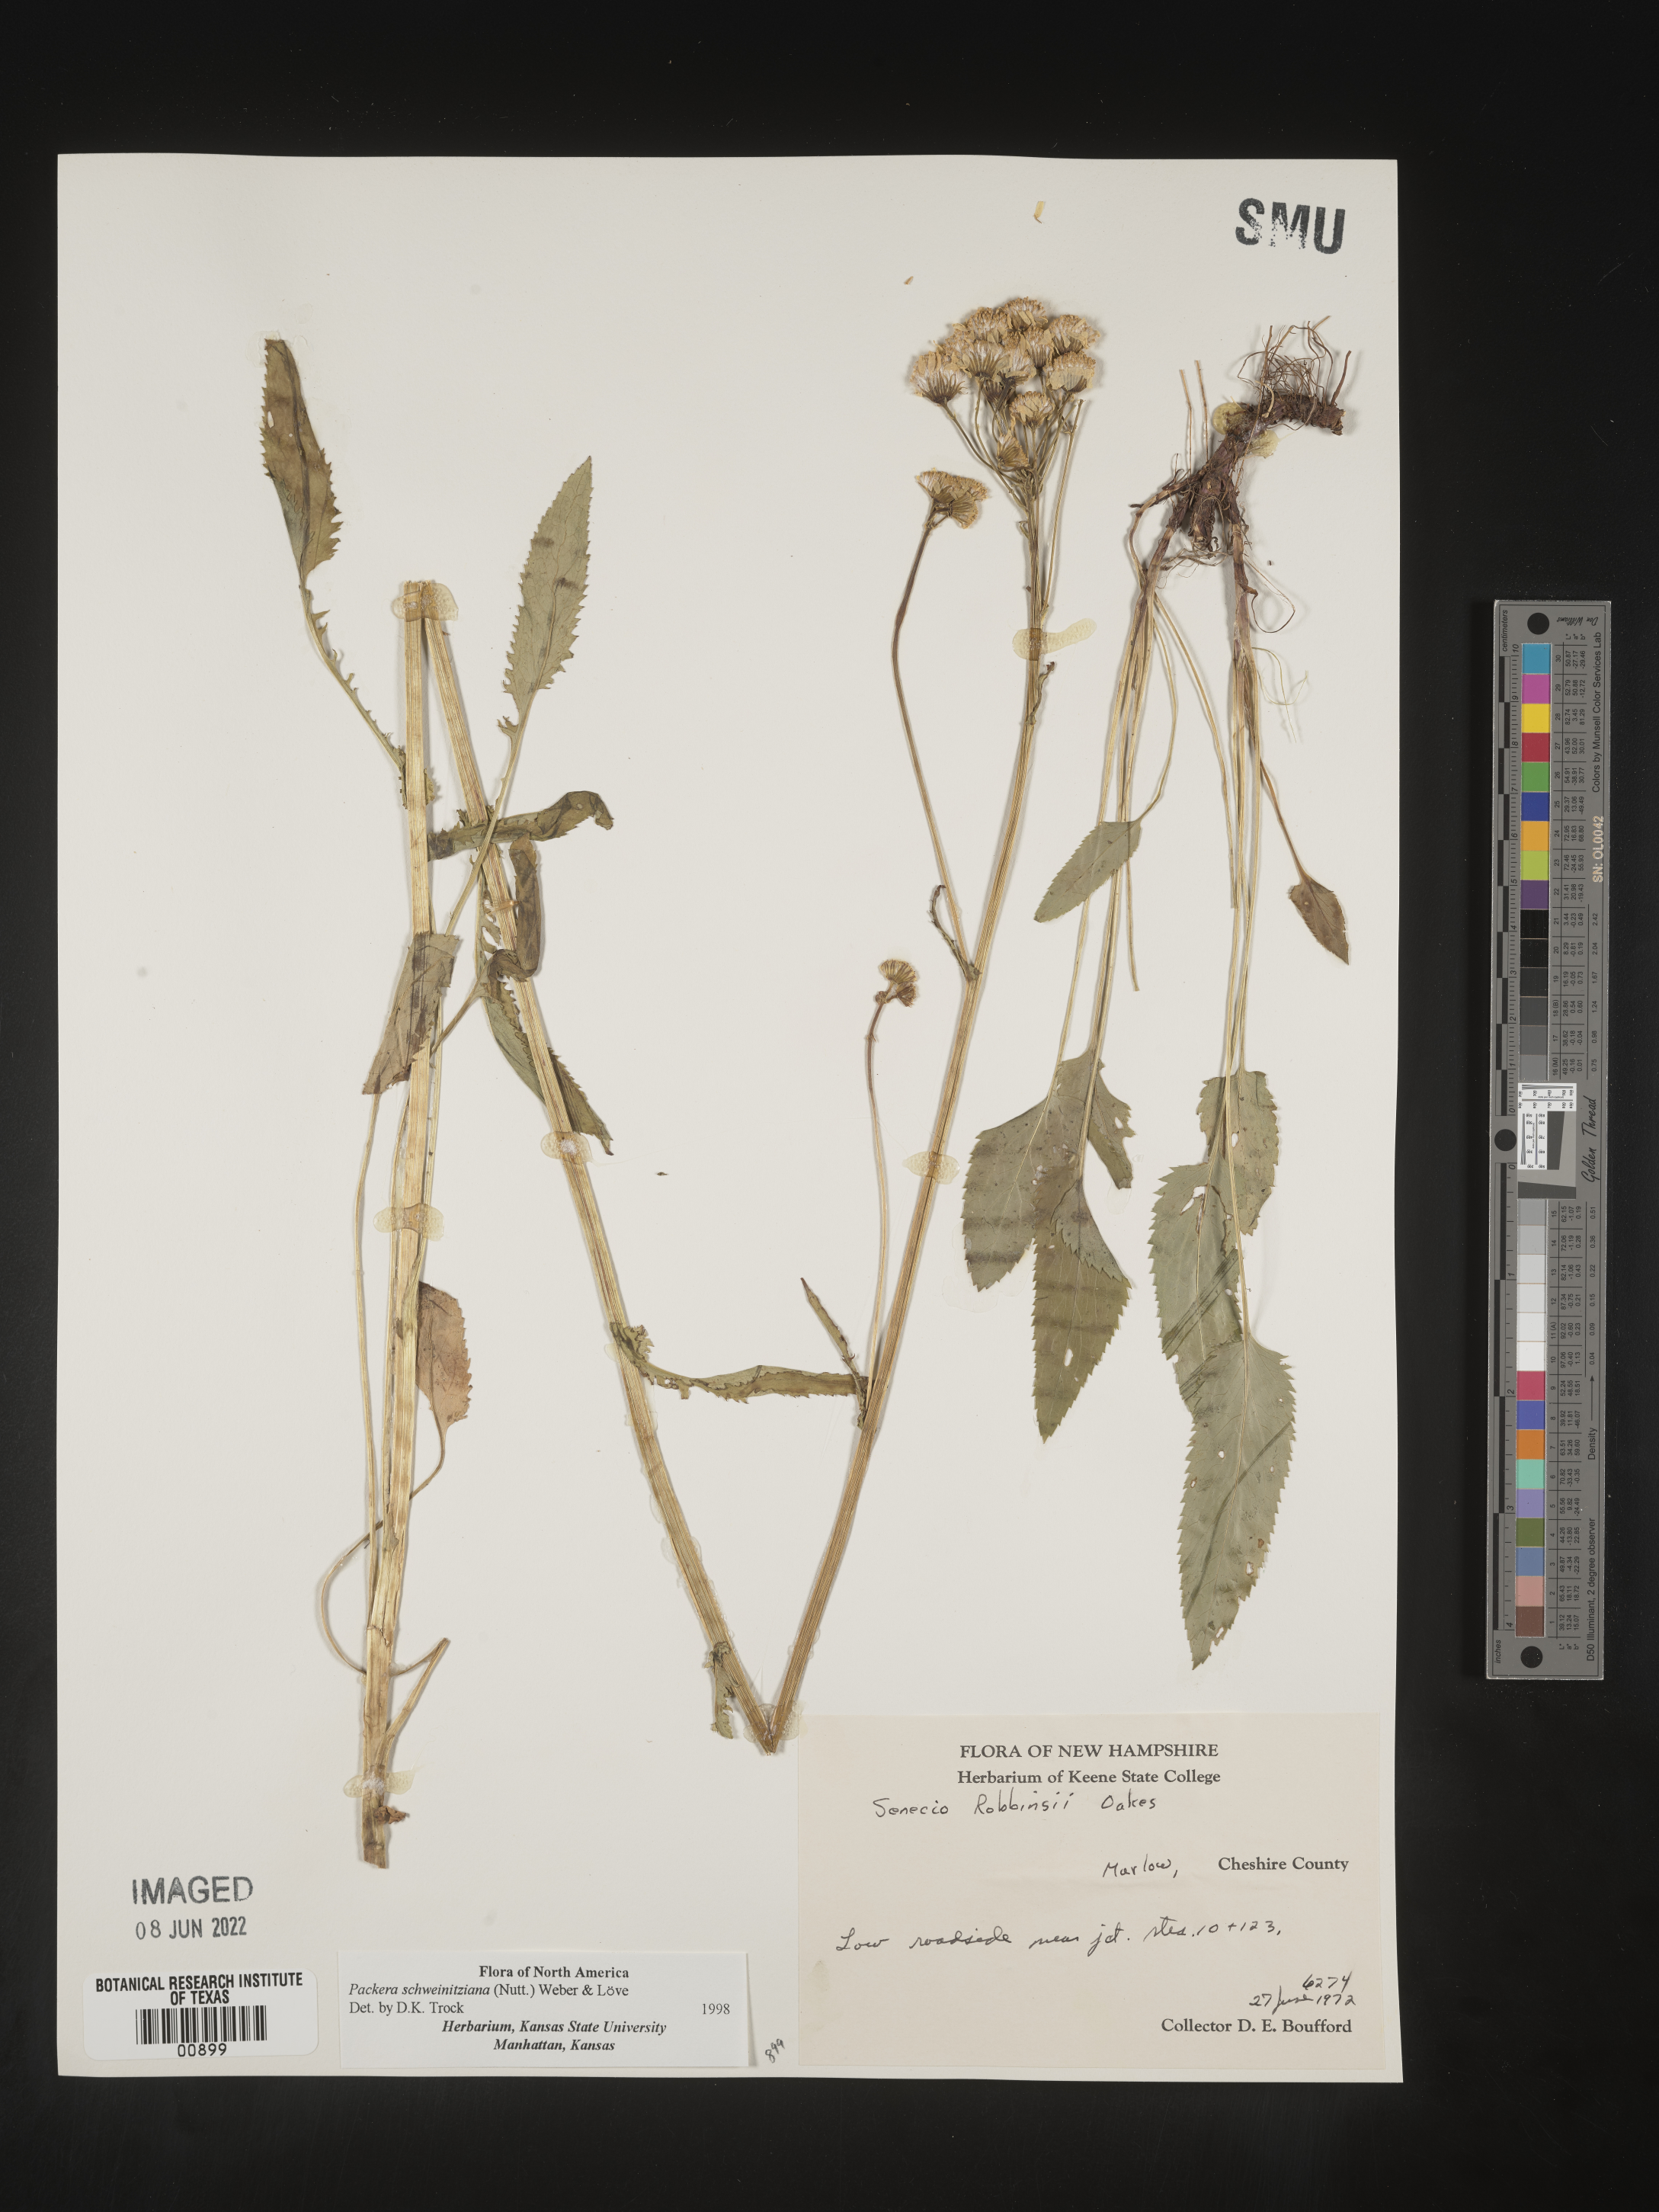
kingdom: Plantae
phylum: Tracheophyta
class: Magnoliopsida
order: Asterales
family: Asteraceae
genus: Packera
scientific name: Packera schweinitziana
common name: Schweinitz's ragwort
